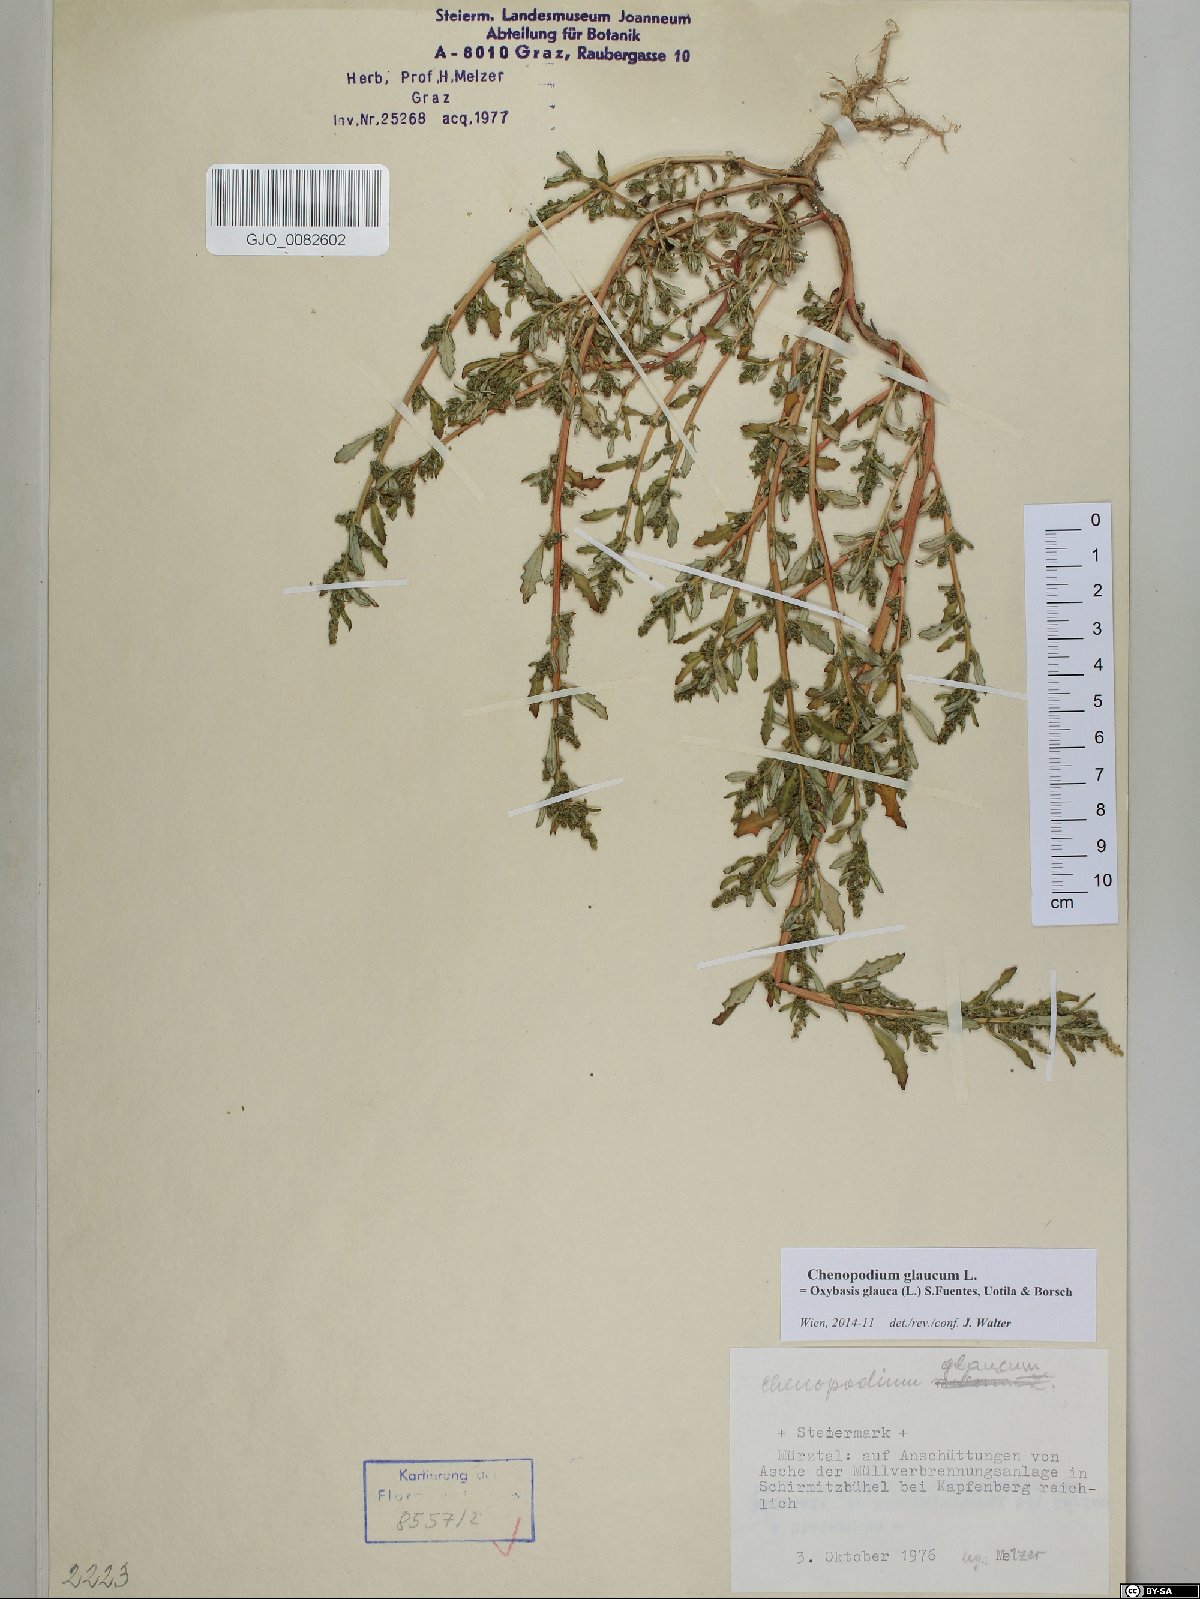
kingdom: Plantae
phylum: Tracheophyta
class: Magnoliopsida
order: Caryophyllales
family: Amaranthaceae
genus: Oxybasis
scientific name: Oxybasis glauca
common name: Glaucous goosefoot
